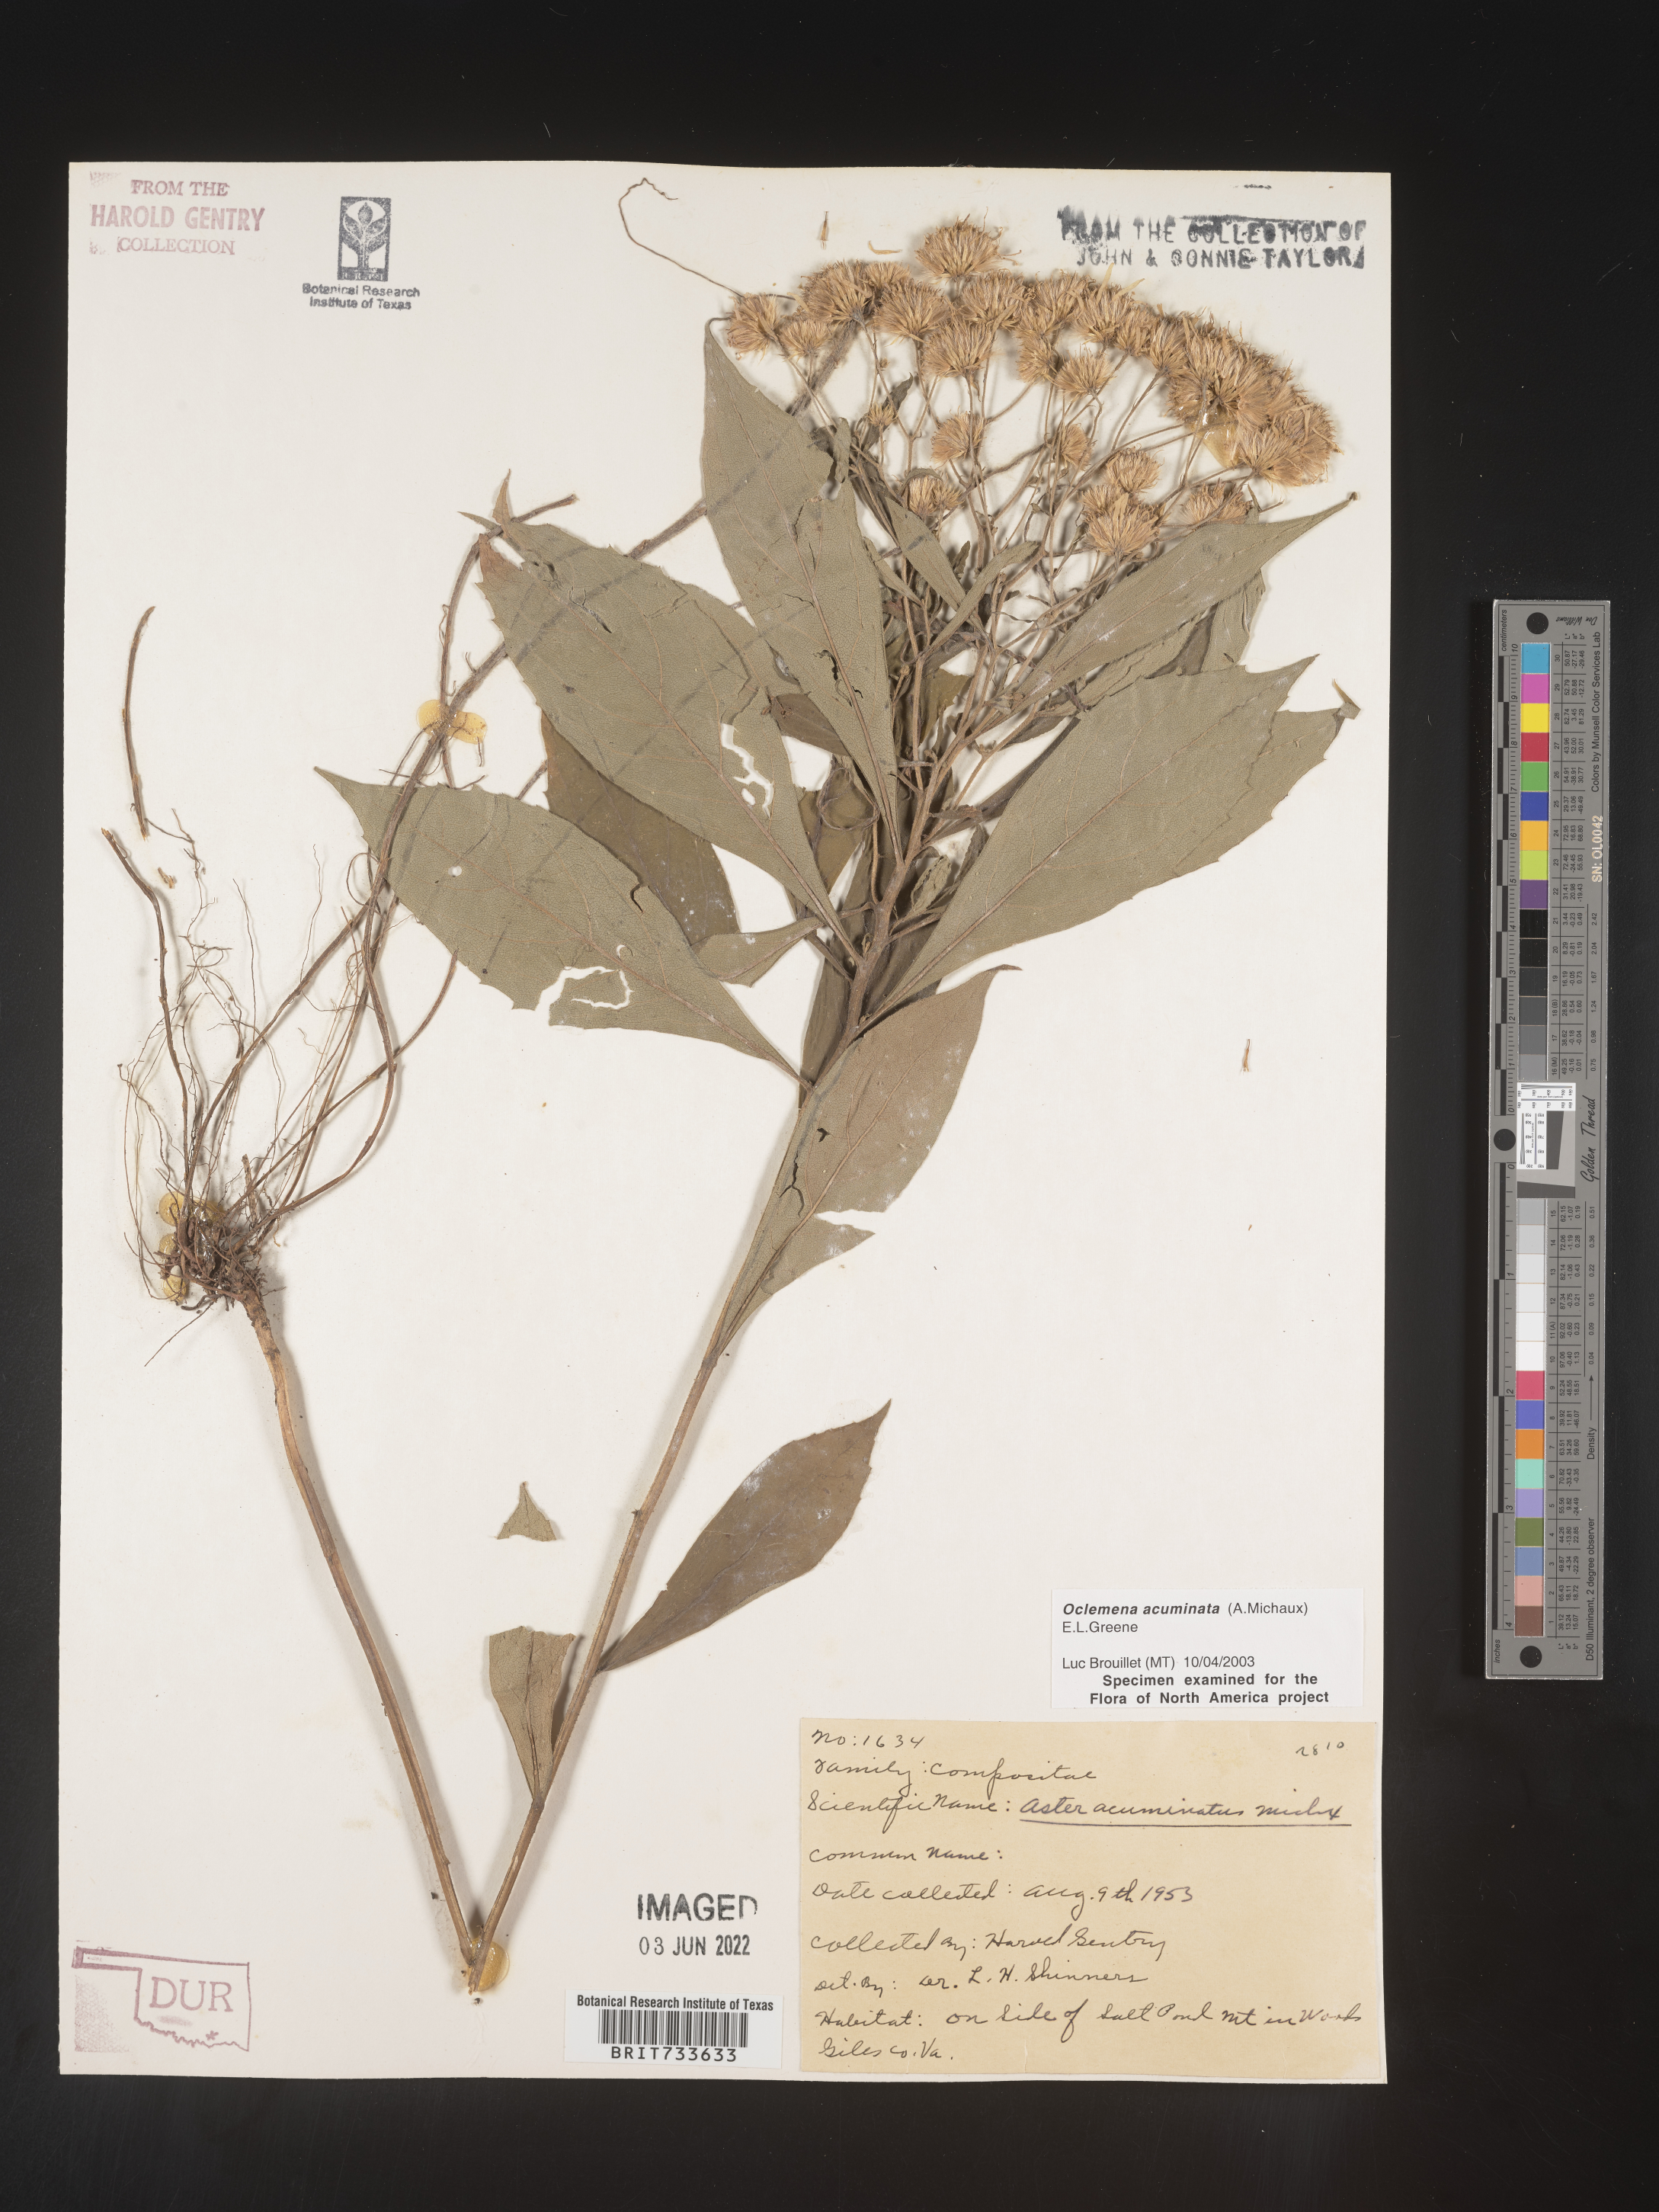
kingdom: Plantae
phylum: Tracheophyta
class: Magnoliopsida
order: Asterales
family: Asteraceae
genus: Oclemena
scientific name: Oclemena acuminata
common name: Mountain aster
